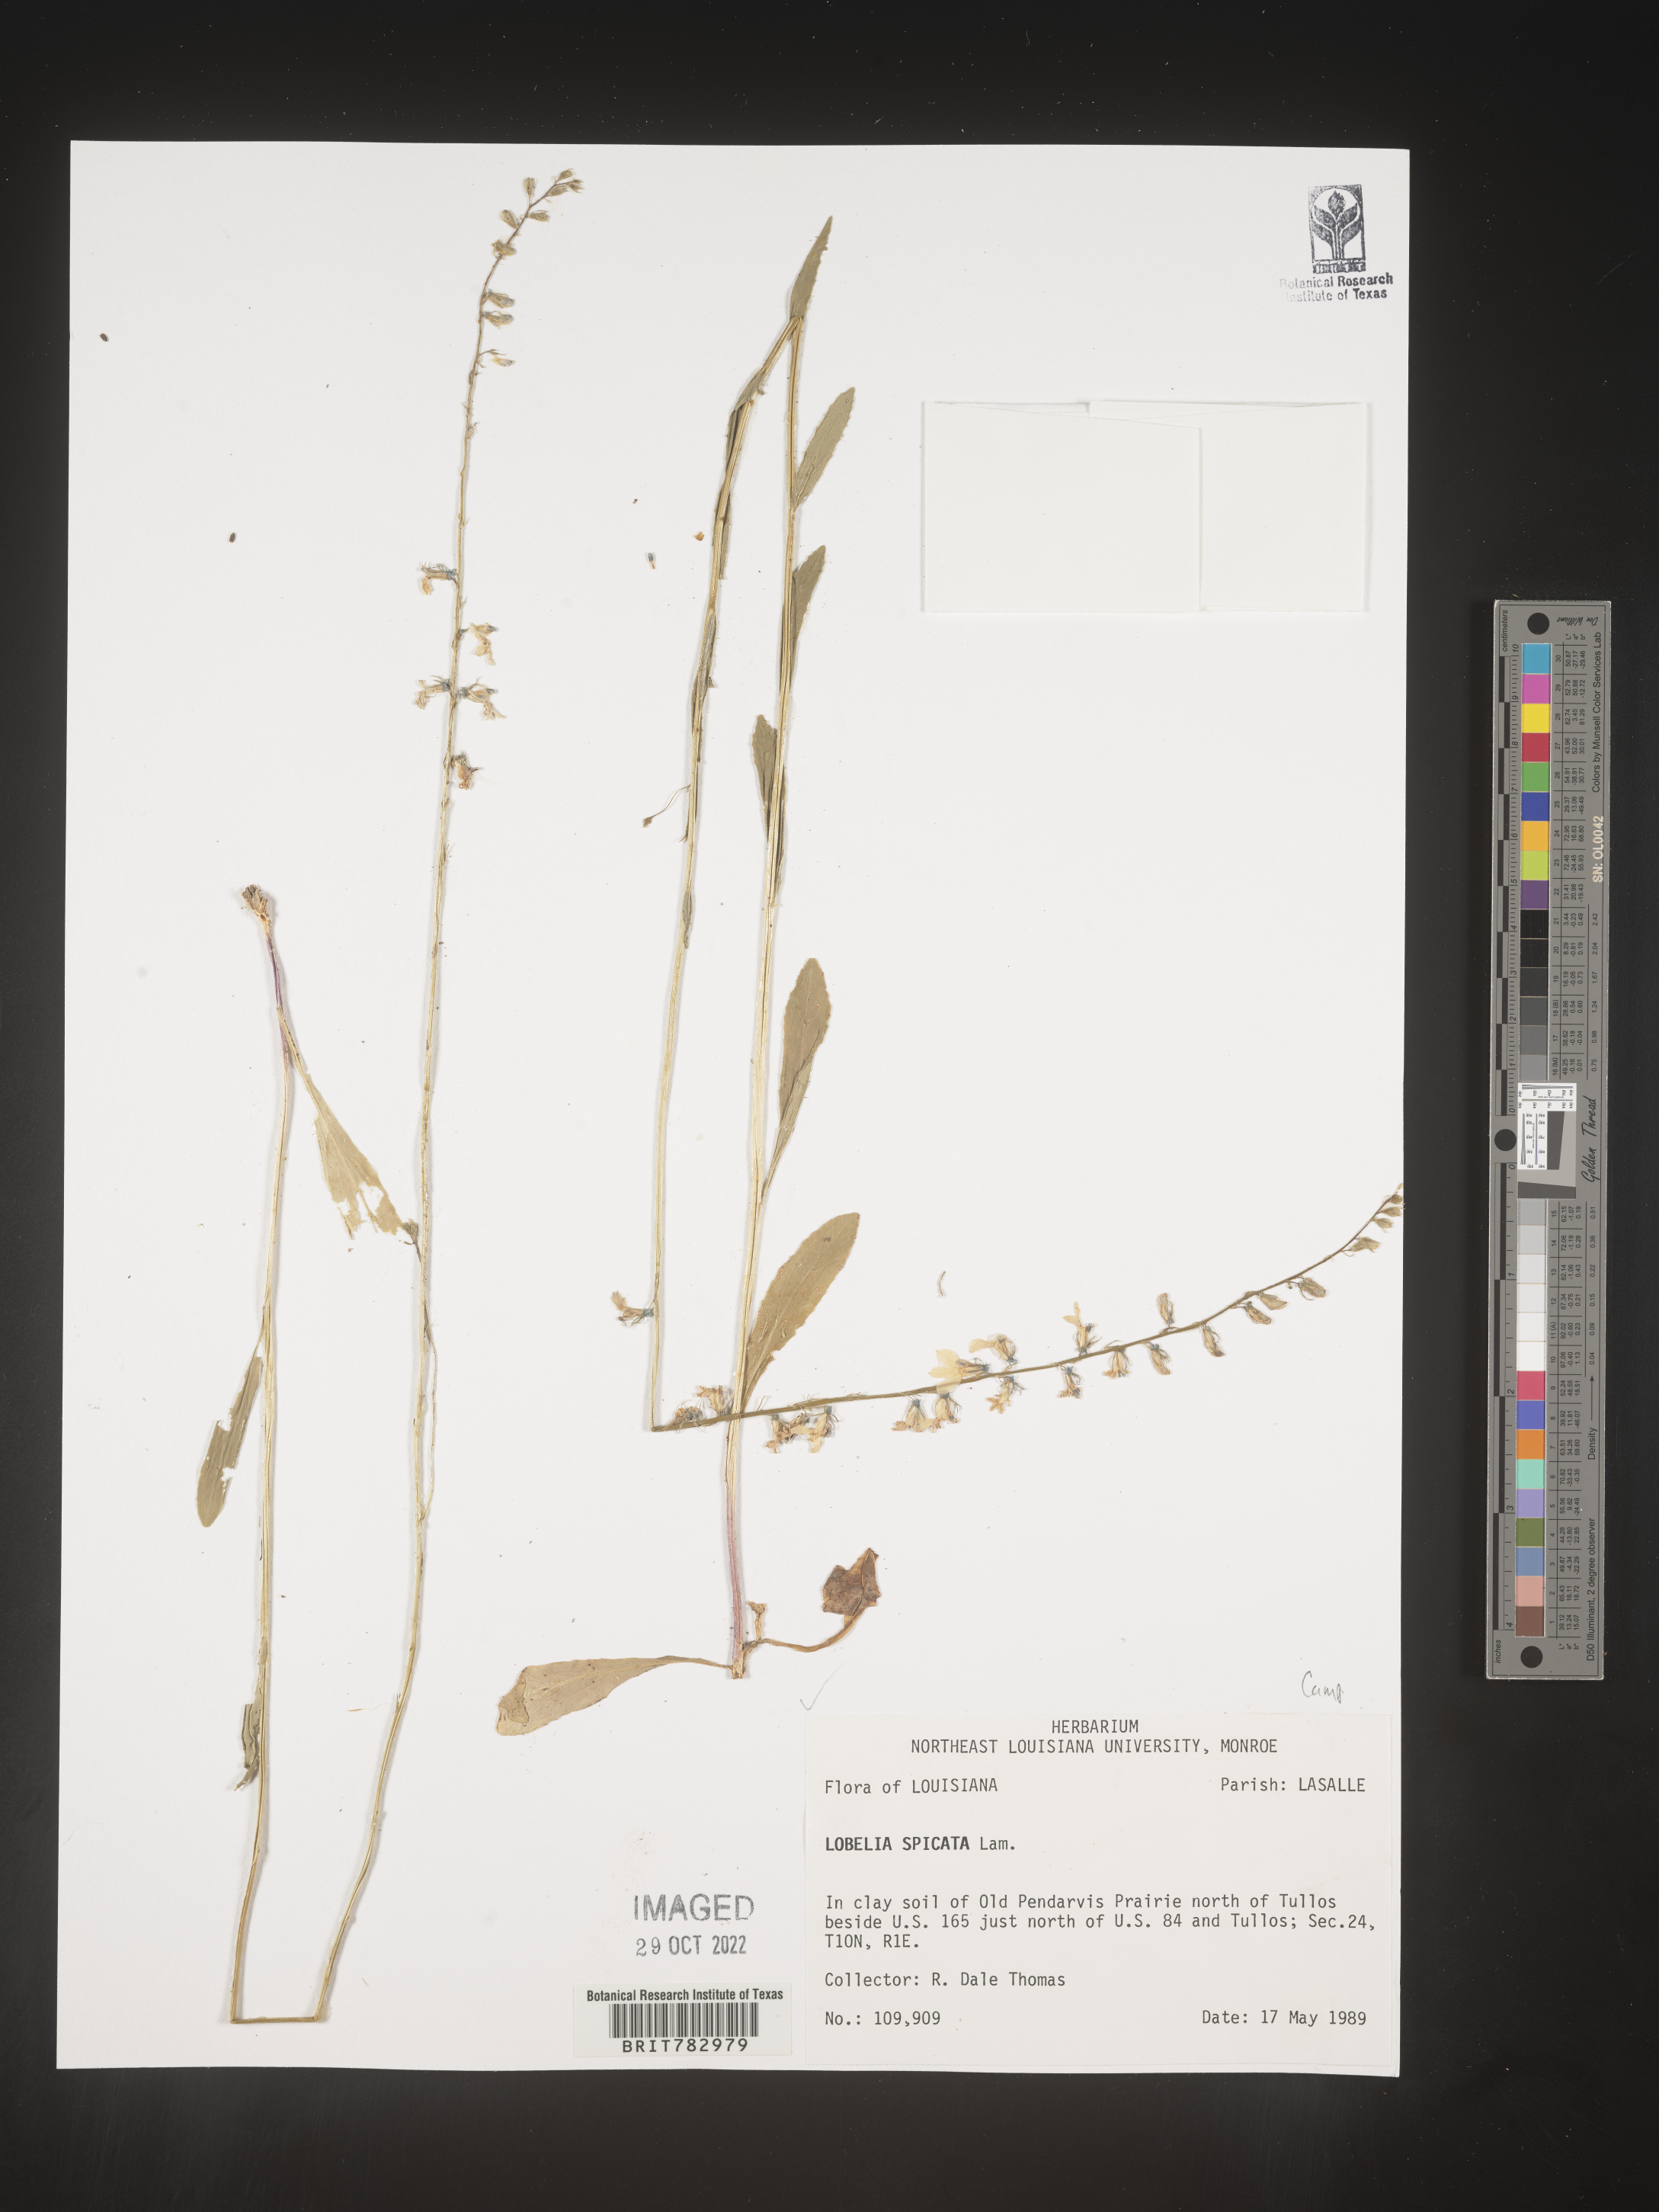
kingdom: Plantae
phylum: Tracheophyta
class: Magnoliopsida
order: Asterales
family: Campanulaceae
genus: Lobelia
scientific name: Lobelia spicata
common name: Pale-spike lobelia
